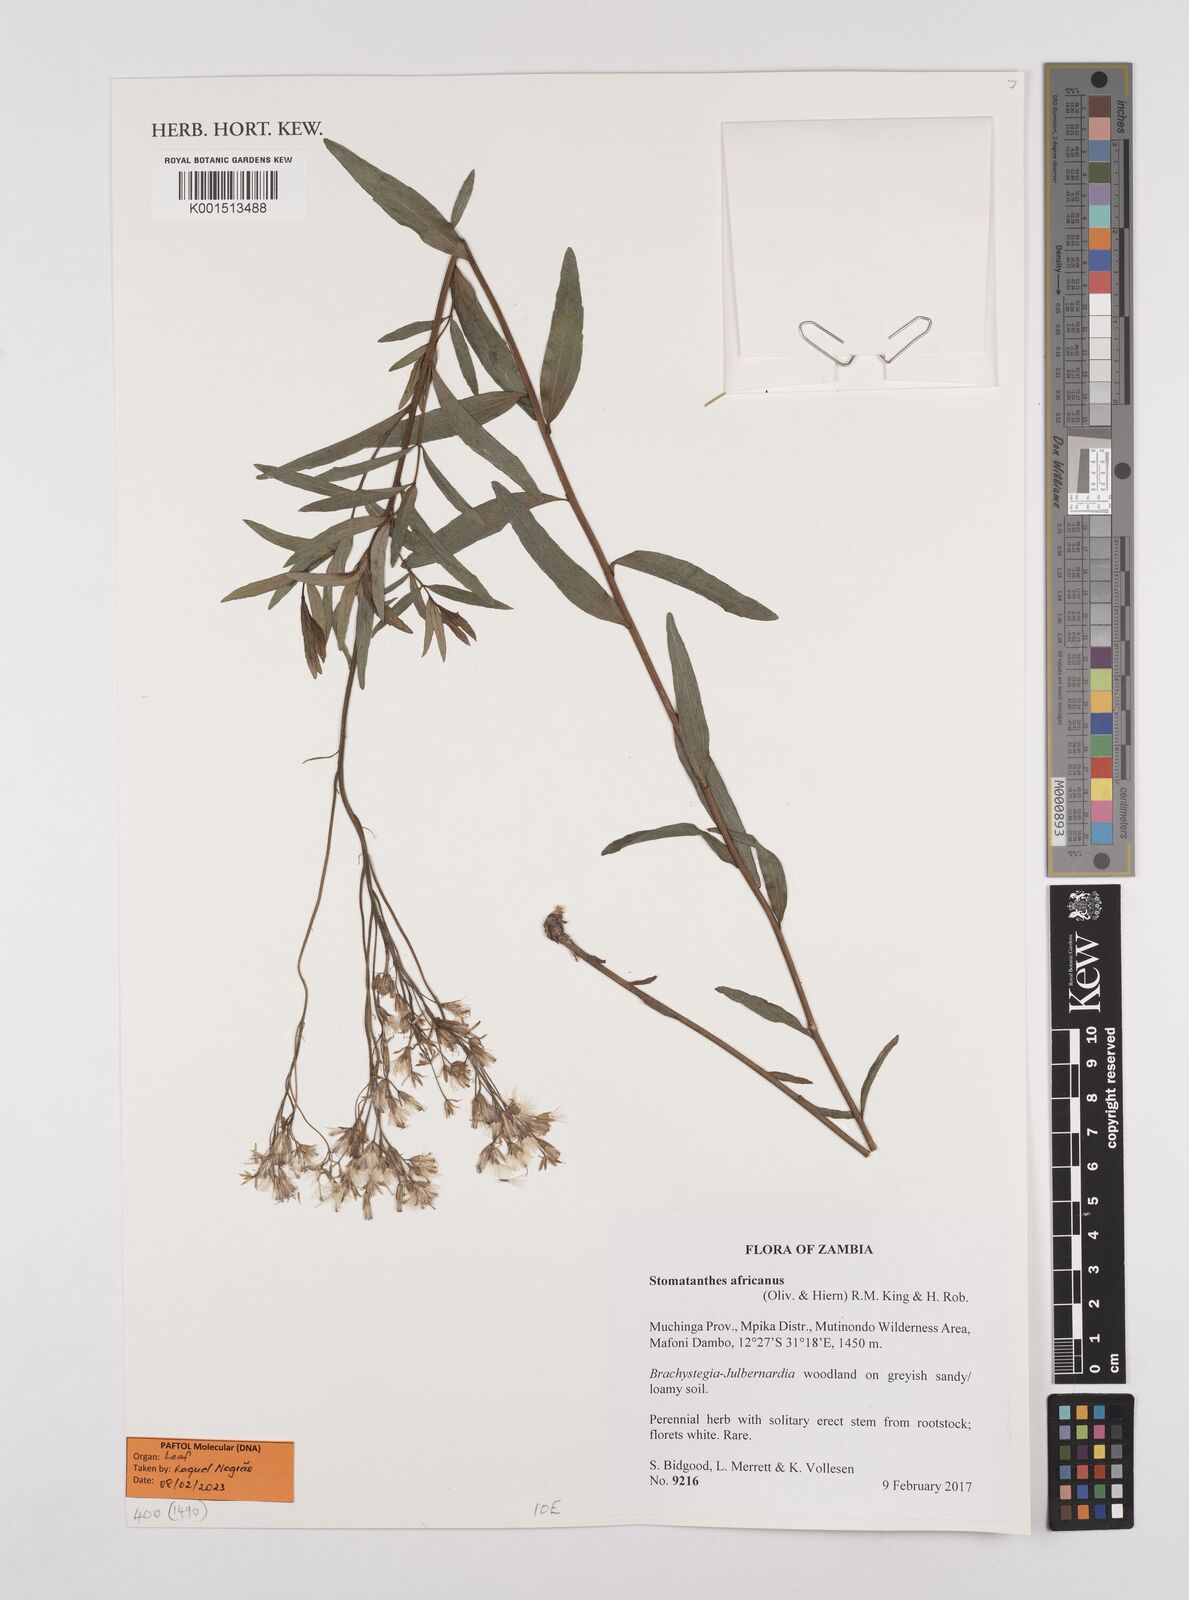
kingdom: Plantae
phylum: Tracheophyta
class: Magnoliopsida
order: Asterales
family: Asteraceae
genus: Stomatanthes
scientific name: Stomatanthes africanus
